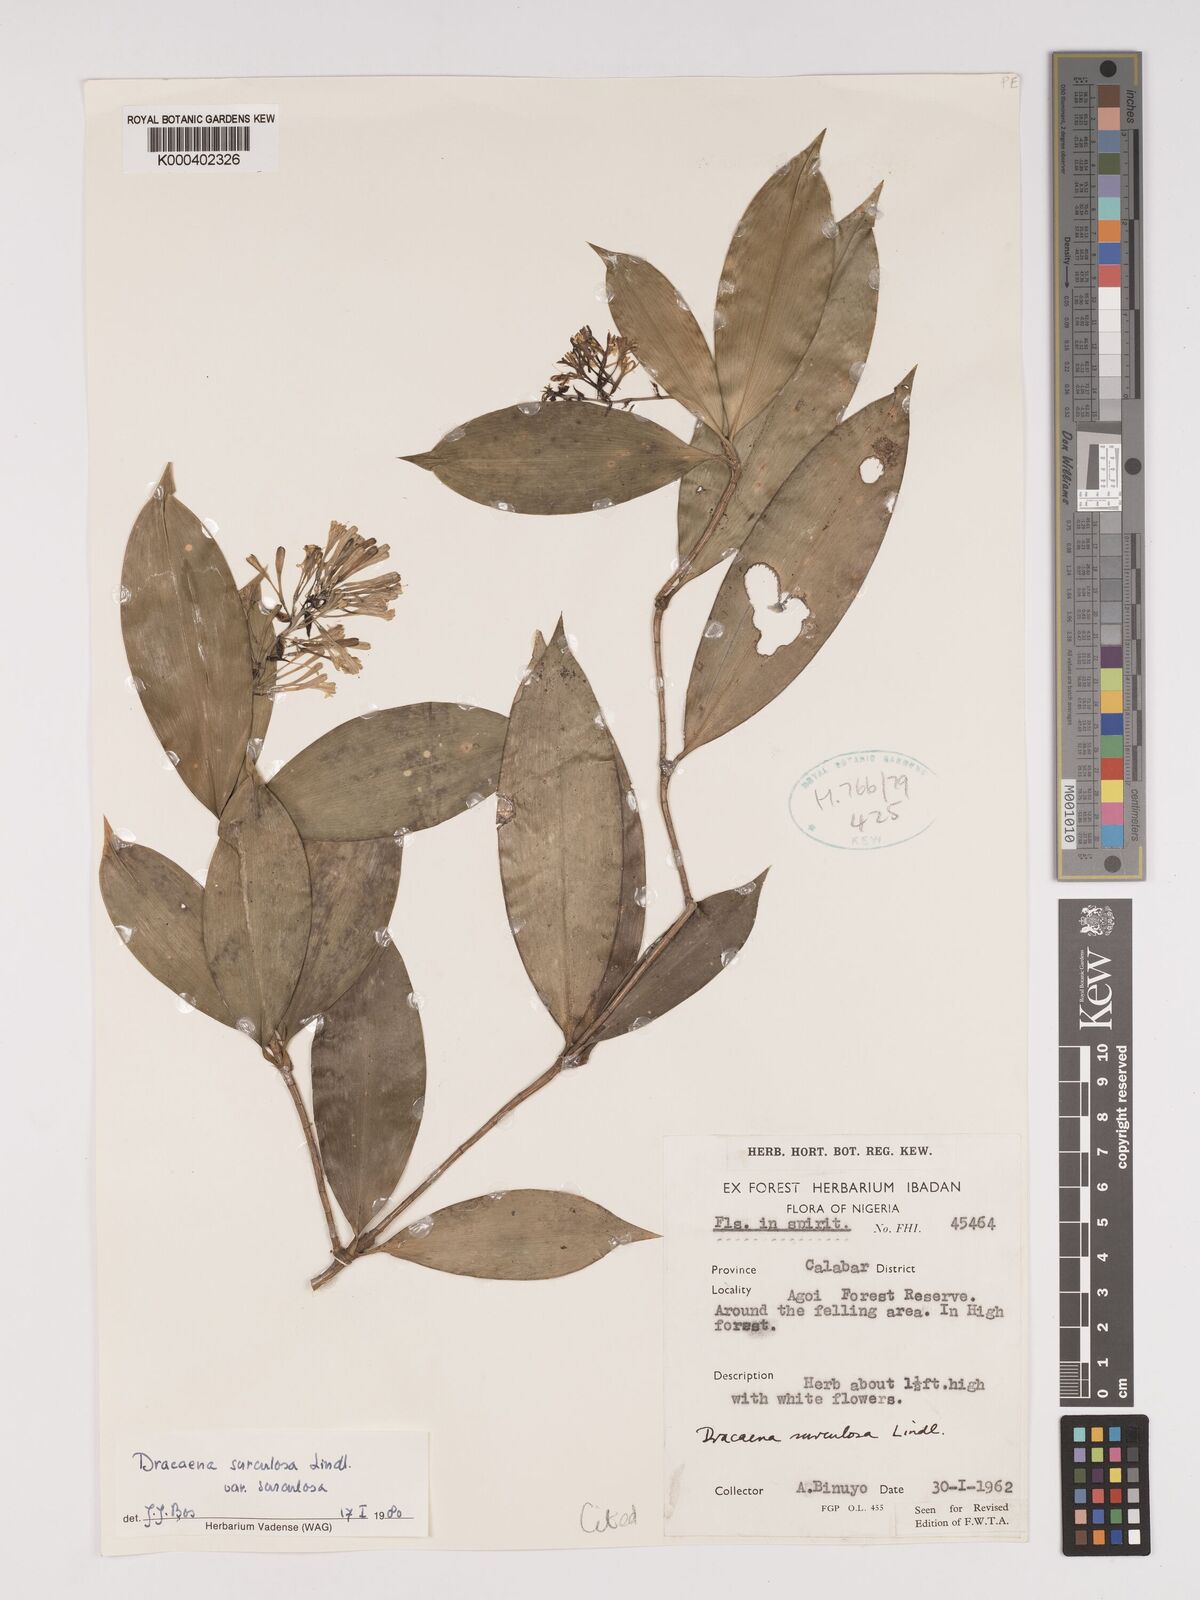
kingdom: Plantae
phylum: Tracheophyta
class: Liliopsida
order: Asparagales
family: Asparagaceae
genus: Dracaena
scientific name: Dracaena surculosa
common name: Spotted dracaena
